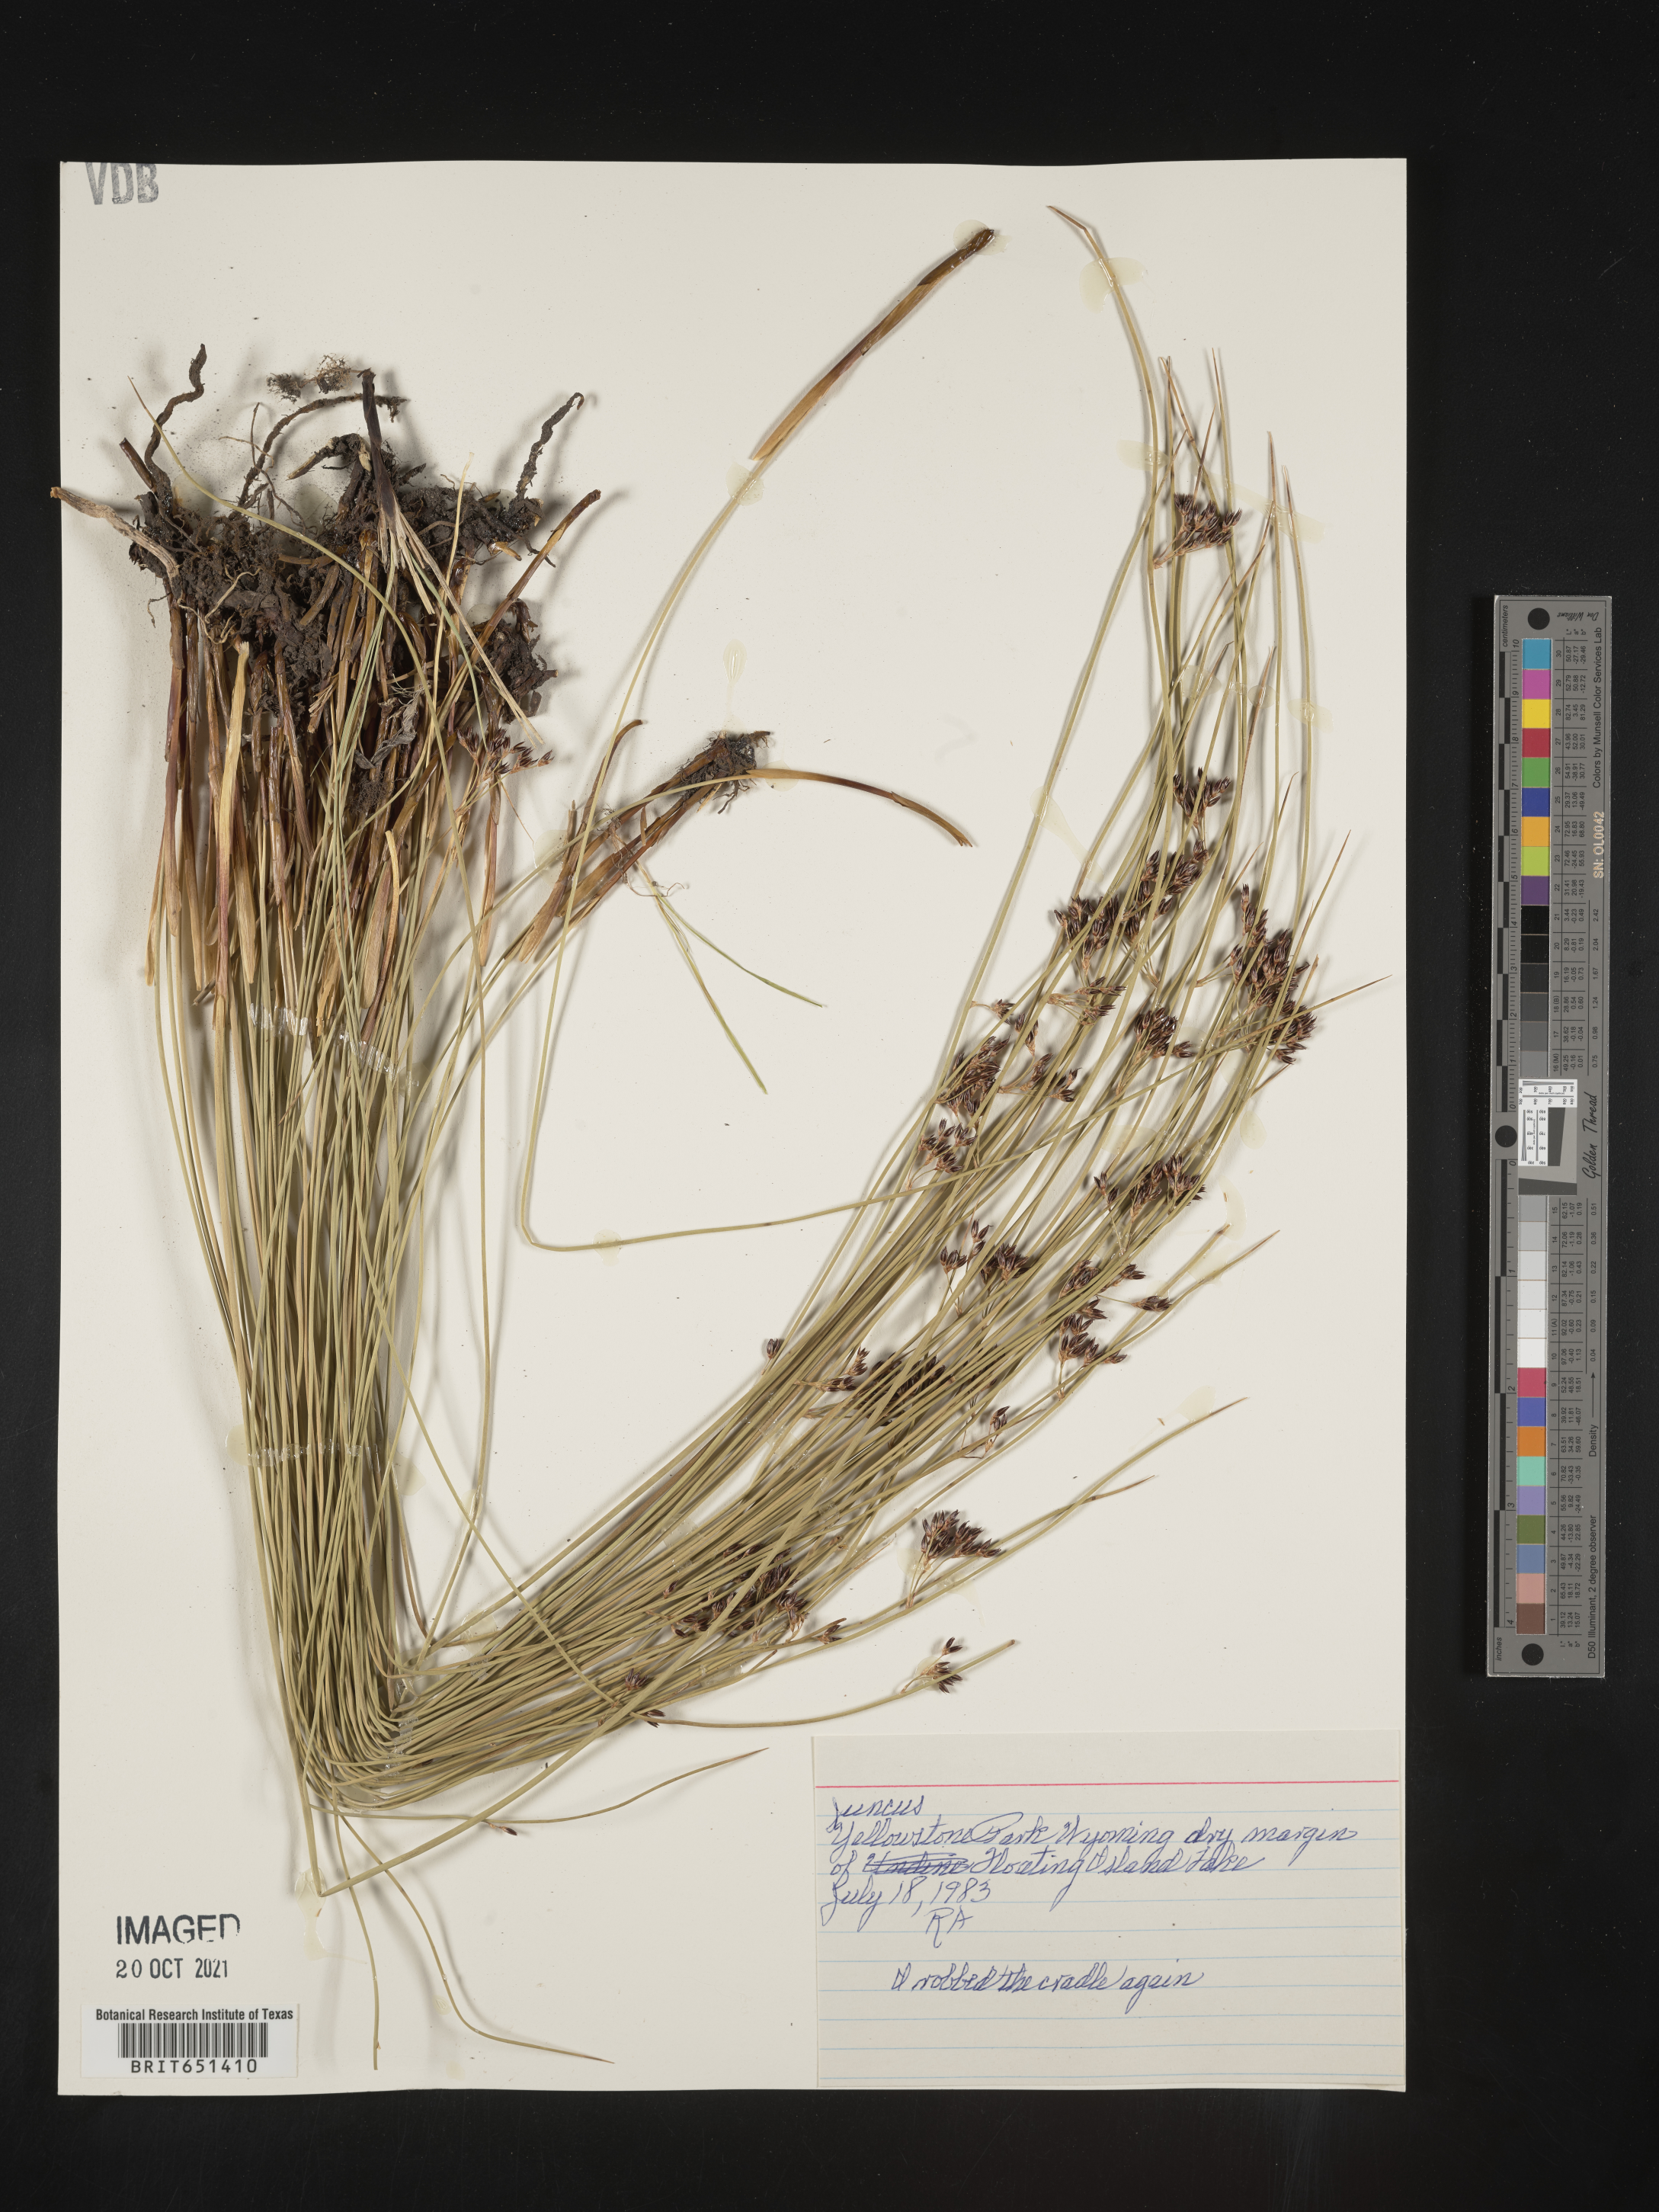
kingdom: Plantae
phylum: Tracheophyta
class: Liliopsida
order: Poales
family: Juncaceae
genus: Juncus
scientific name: Juncus
